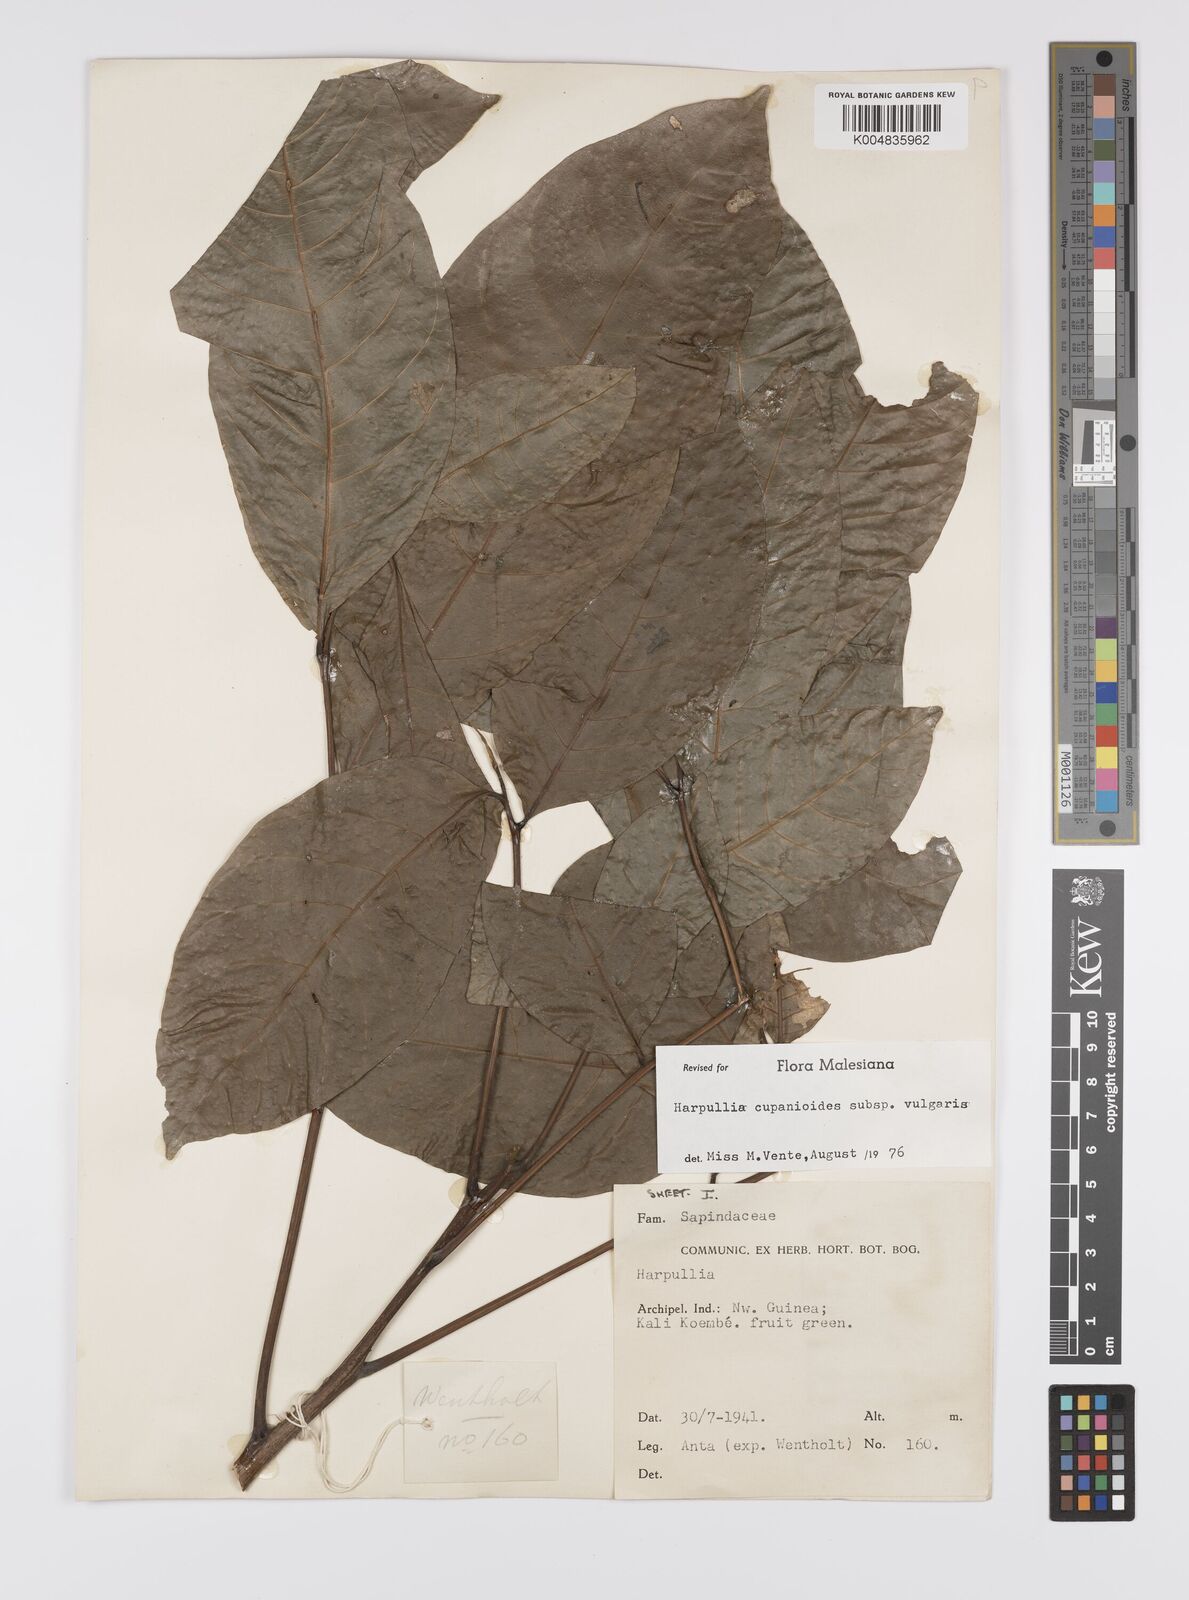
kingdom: Plantae
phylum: Tracheophyta
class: Magnoliopsida
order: Sapindales
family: Sapindaceae
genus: Harpullia
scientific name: Harpullia cupanioides
